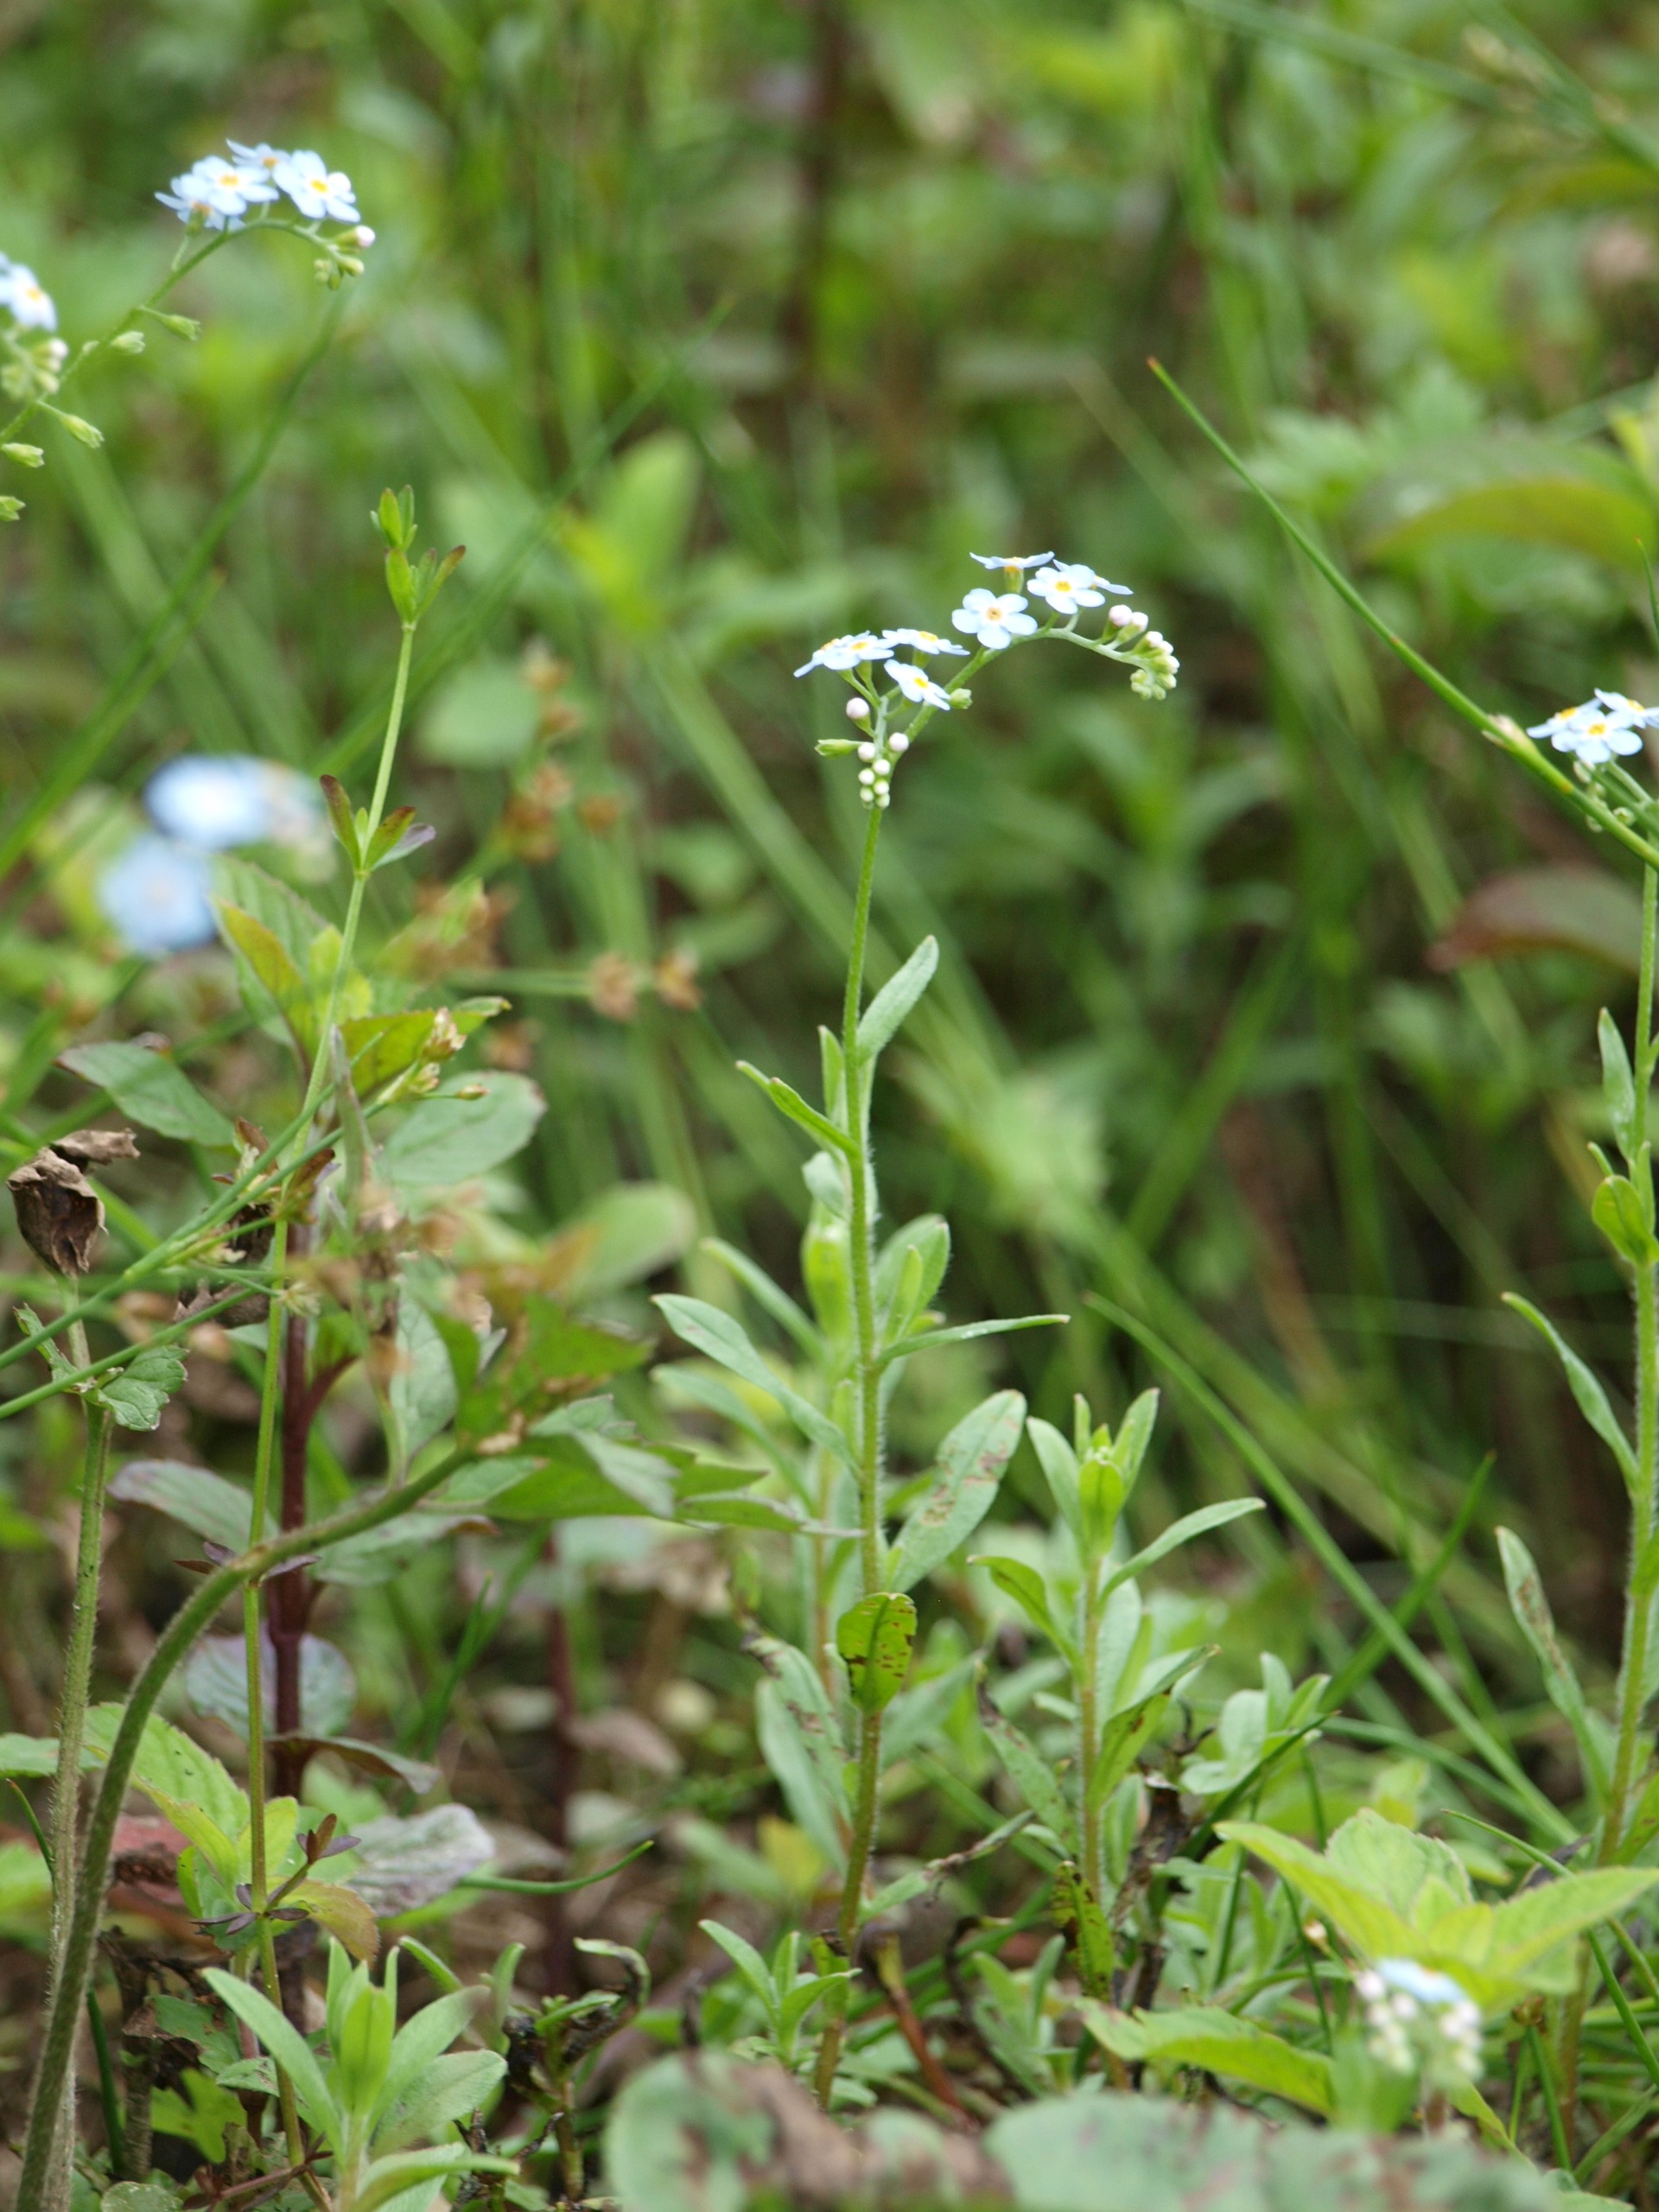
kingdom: Plantae
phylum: Tracheophyta
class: Magnoliopsida
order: Boraginales
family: Boraginaceae
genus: Myosotis
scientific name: Myosotis scorpioides
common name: Eng-forglemmigej
